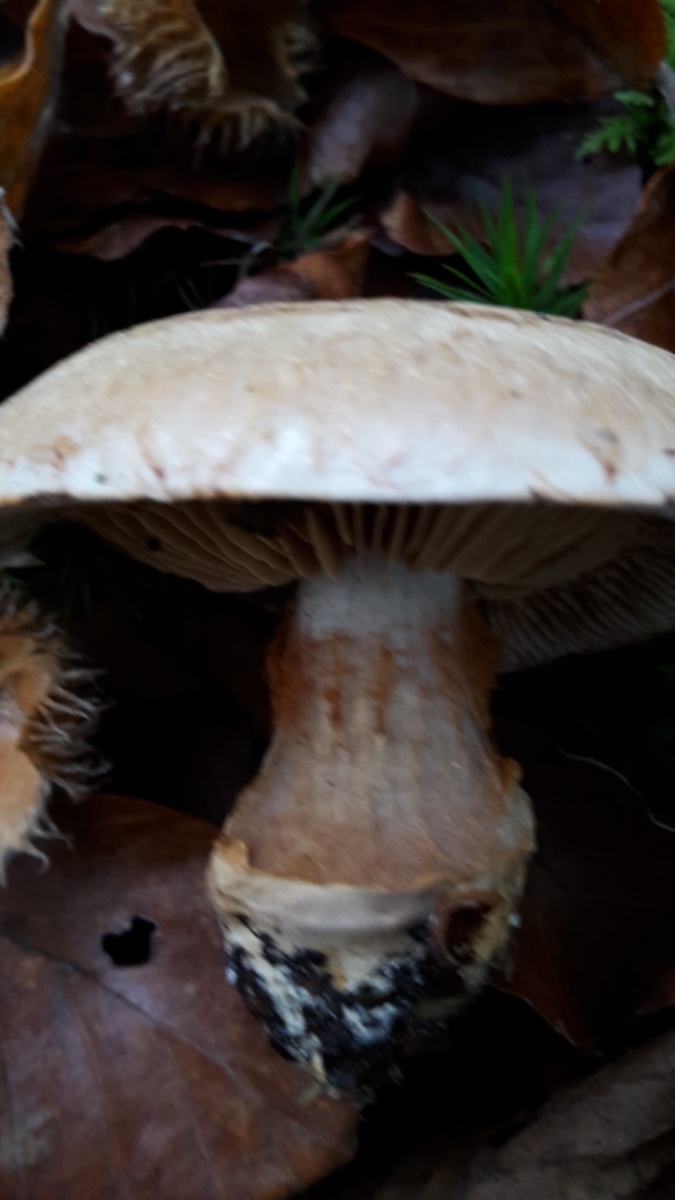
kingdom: Fungi
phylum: Basidiomycota
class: Agaricomycetes
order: Agaricales
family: Cortinariaceae
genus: Phlegmacium
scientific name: Phlegmacium luhmannii
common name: musegrå slørhat
